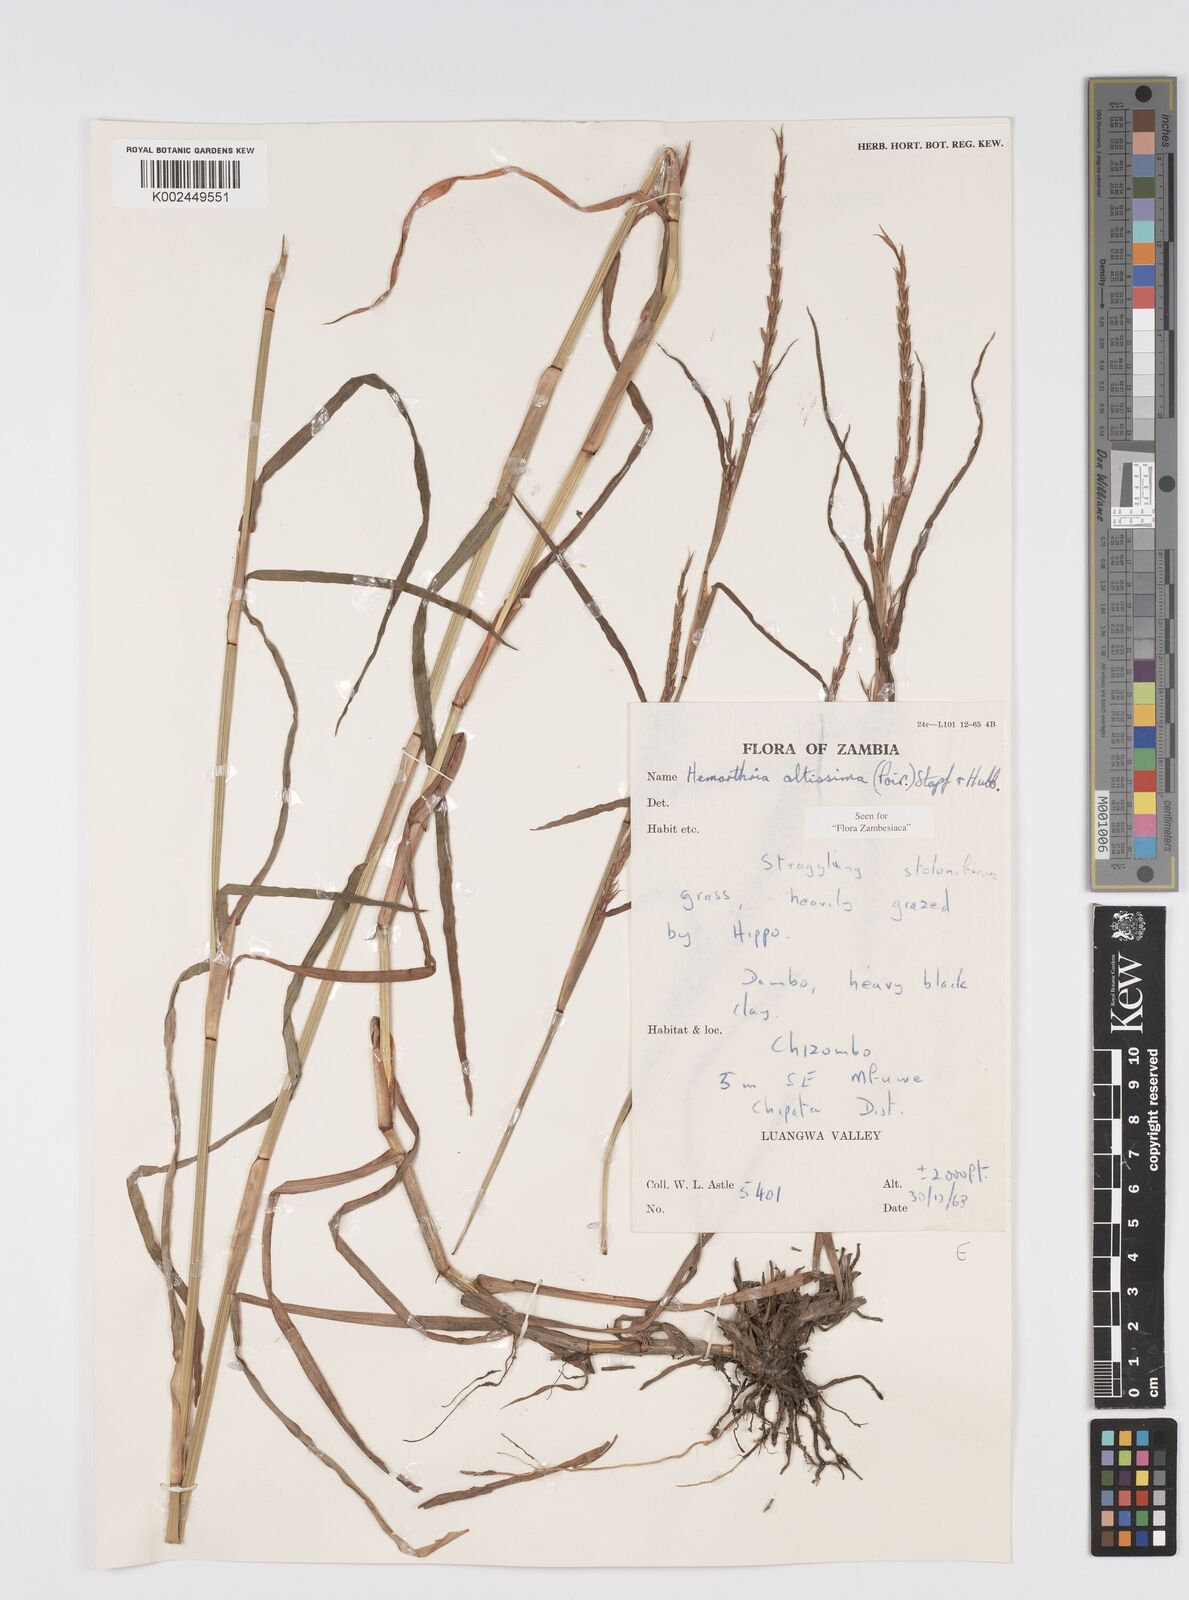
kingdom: Plantae
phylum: Tracheophyta
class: Liliopsida
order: Poales
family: Poaceae
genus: Hemarthria
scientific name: Hemarthria altissima
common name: African jointgrass
